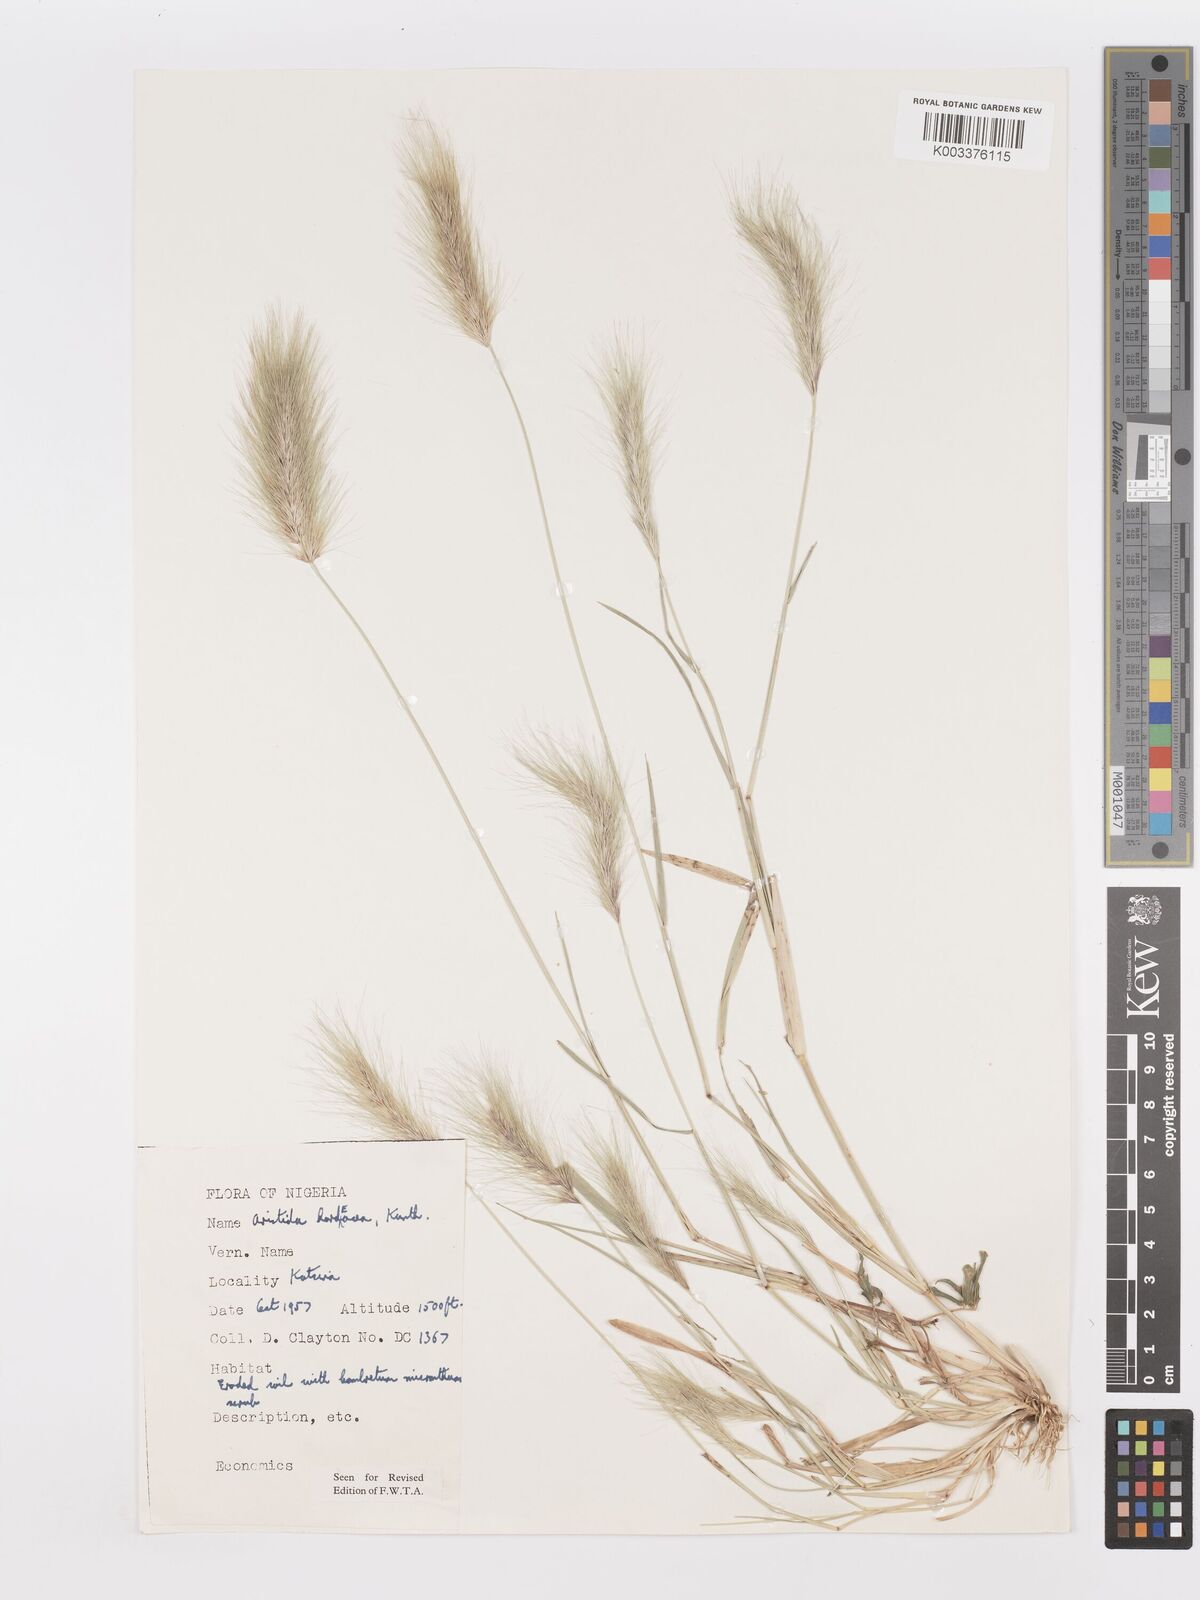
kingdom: Plantae
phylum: Tracheophyta
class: Liliopsida
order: Poales
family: Poaceae
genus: Aristida
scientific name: Aristida hordeacea
